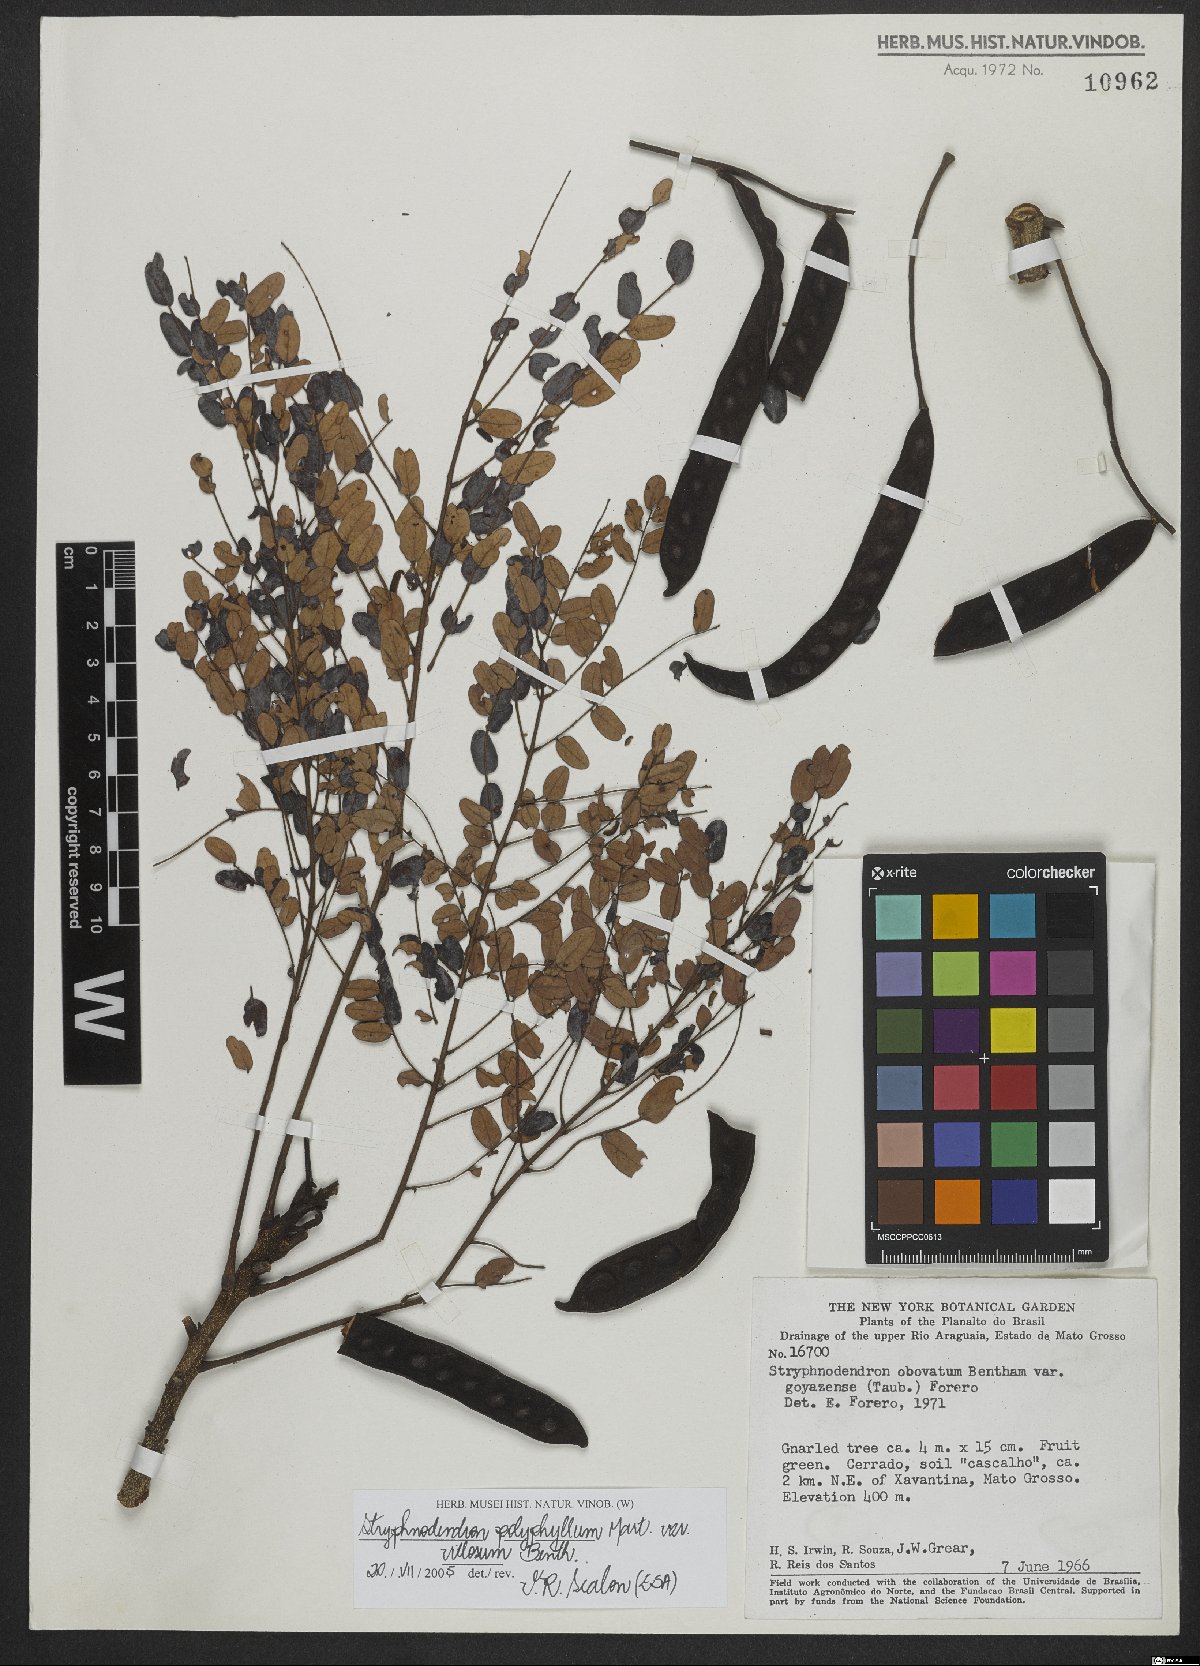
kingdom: Plantae
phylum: Tracheophyta
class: Magnoliopsida
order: Fabales
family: Fabaceae
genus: Stryphnodendron
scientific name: Stryphnodendron polyphyllum
